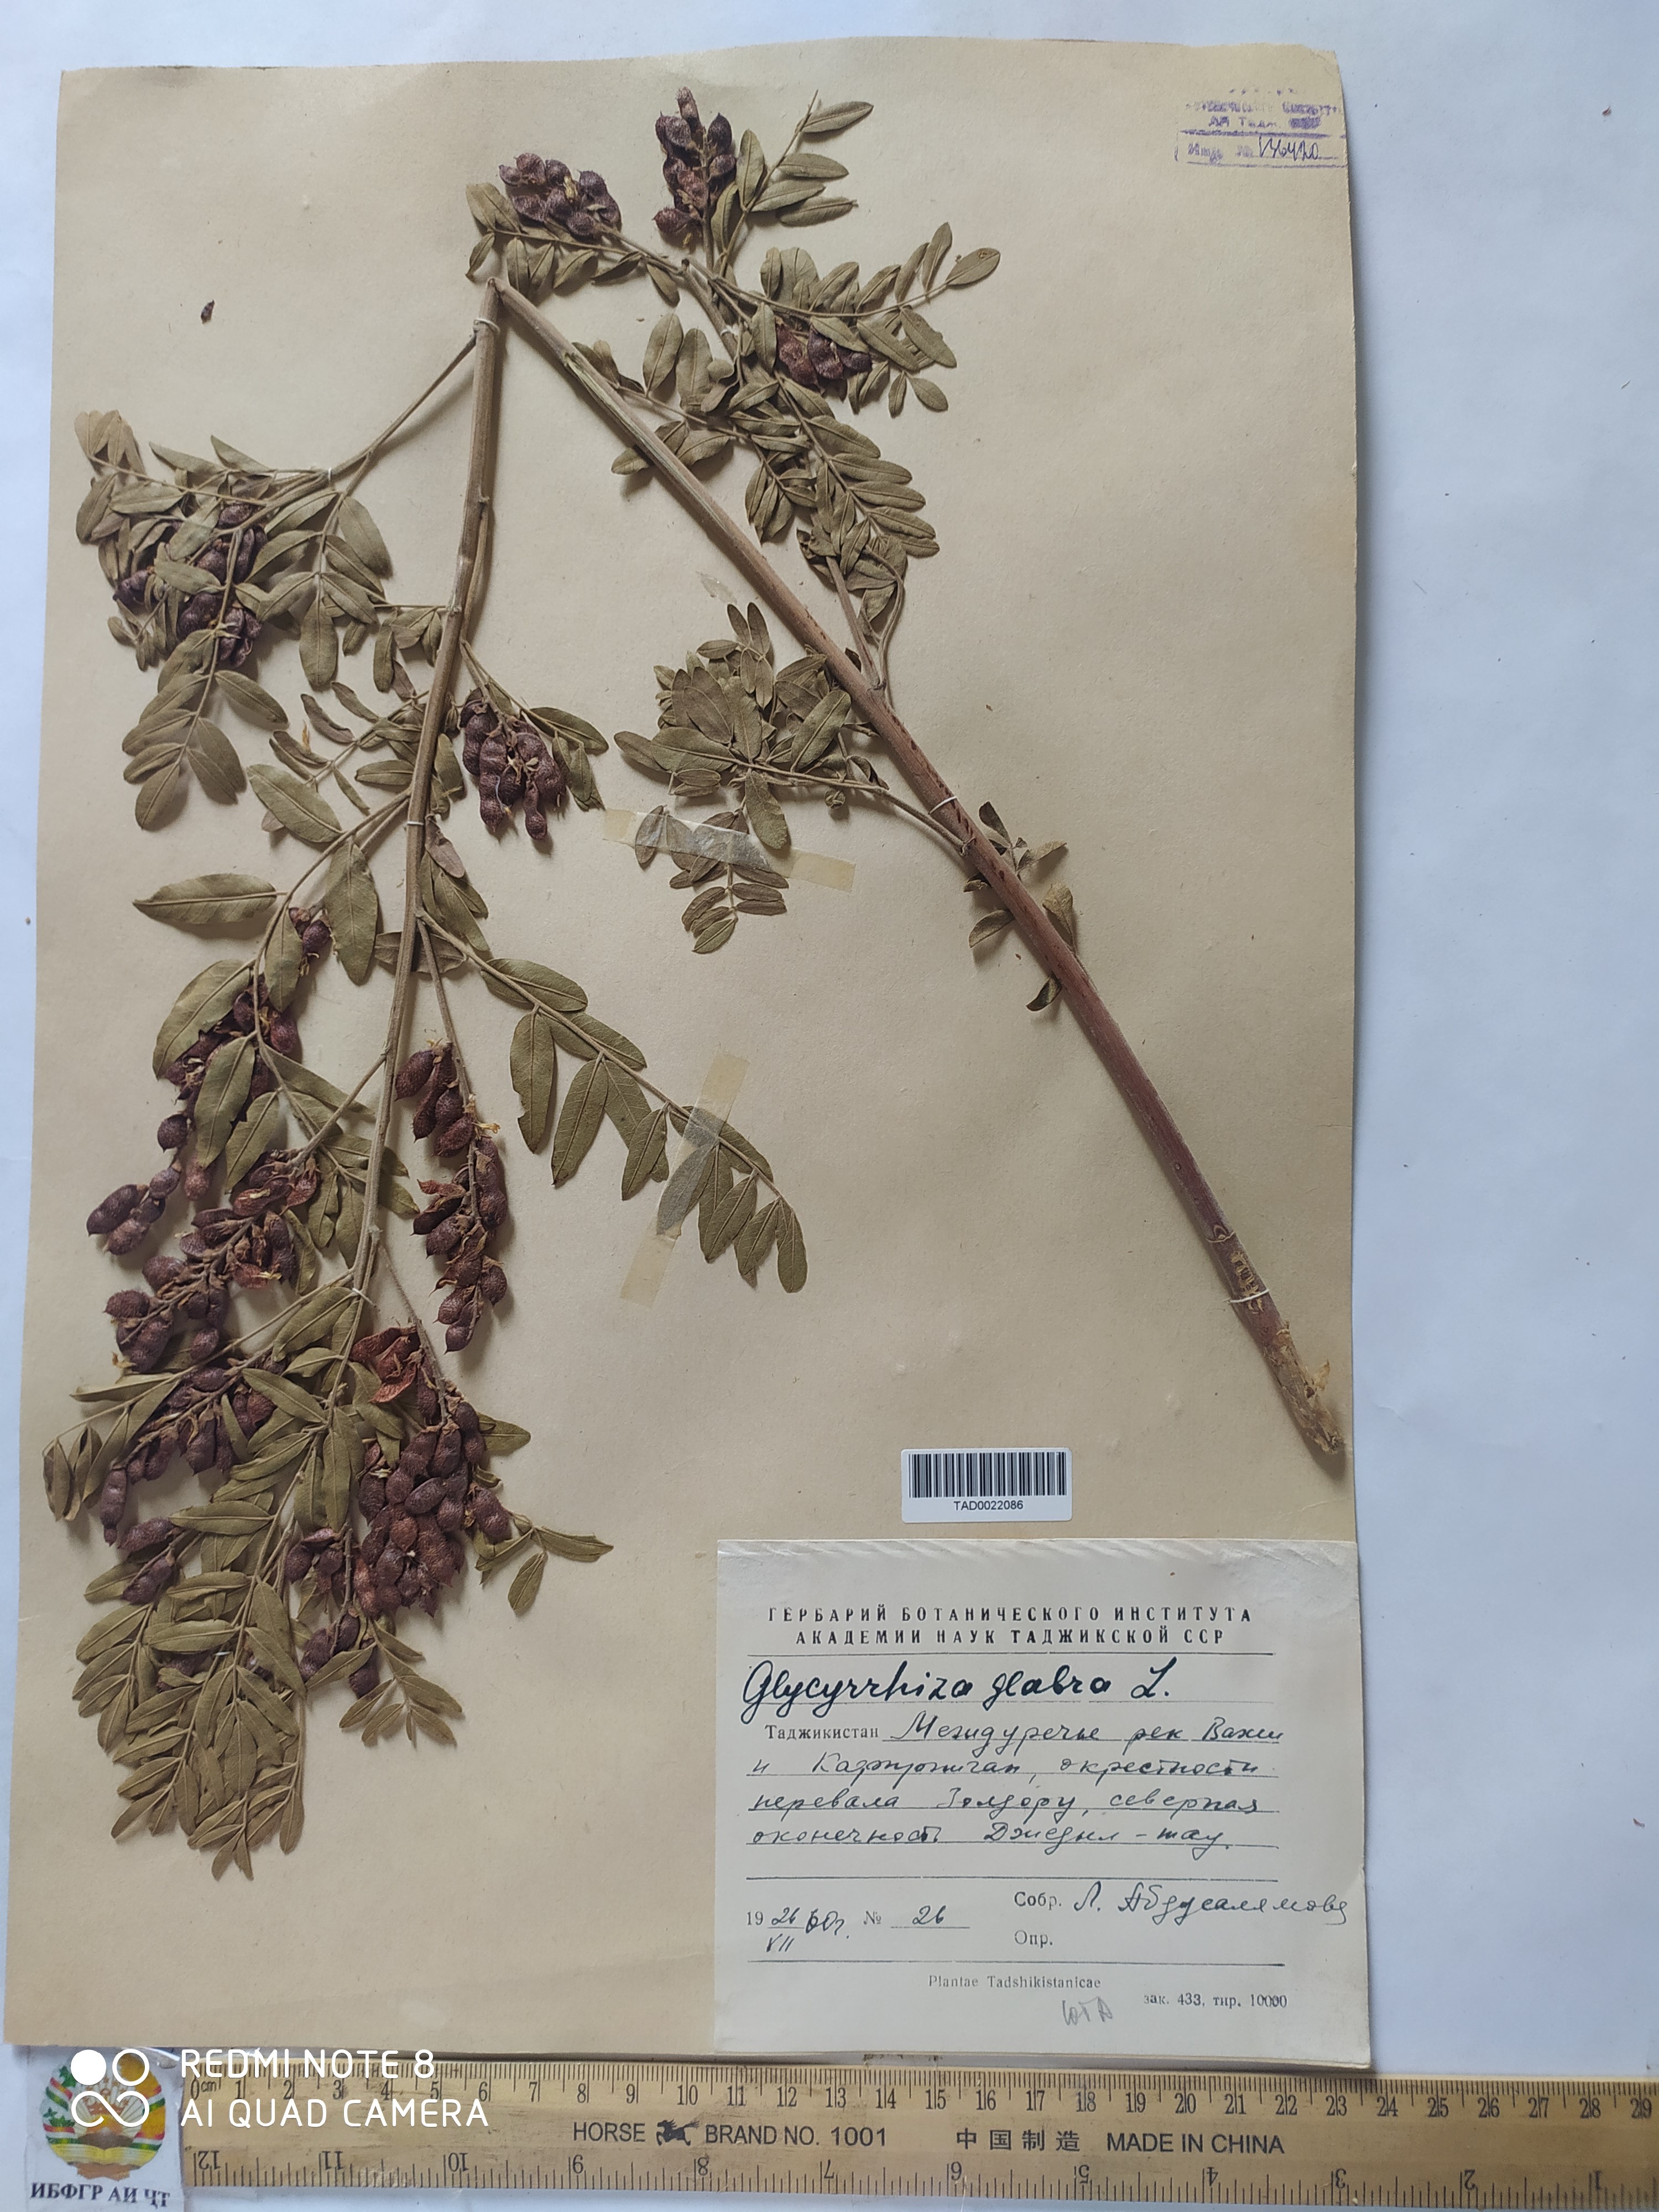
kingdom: Plantae
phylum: Tracheophyta
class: Magnoliopsida
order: Fabales
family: Fabaceae
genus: Glycyrrhiza
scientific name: Glycyrrhiza glabra
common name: Liquorice
